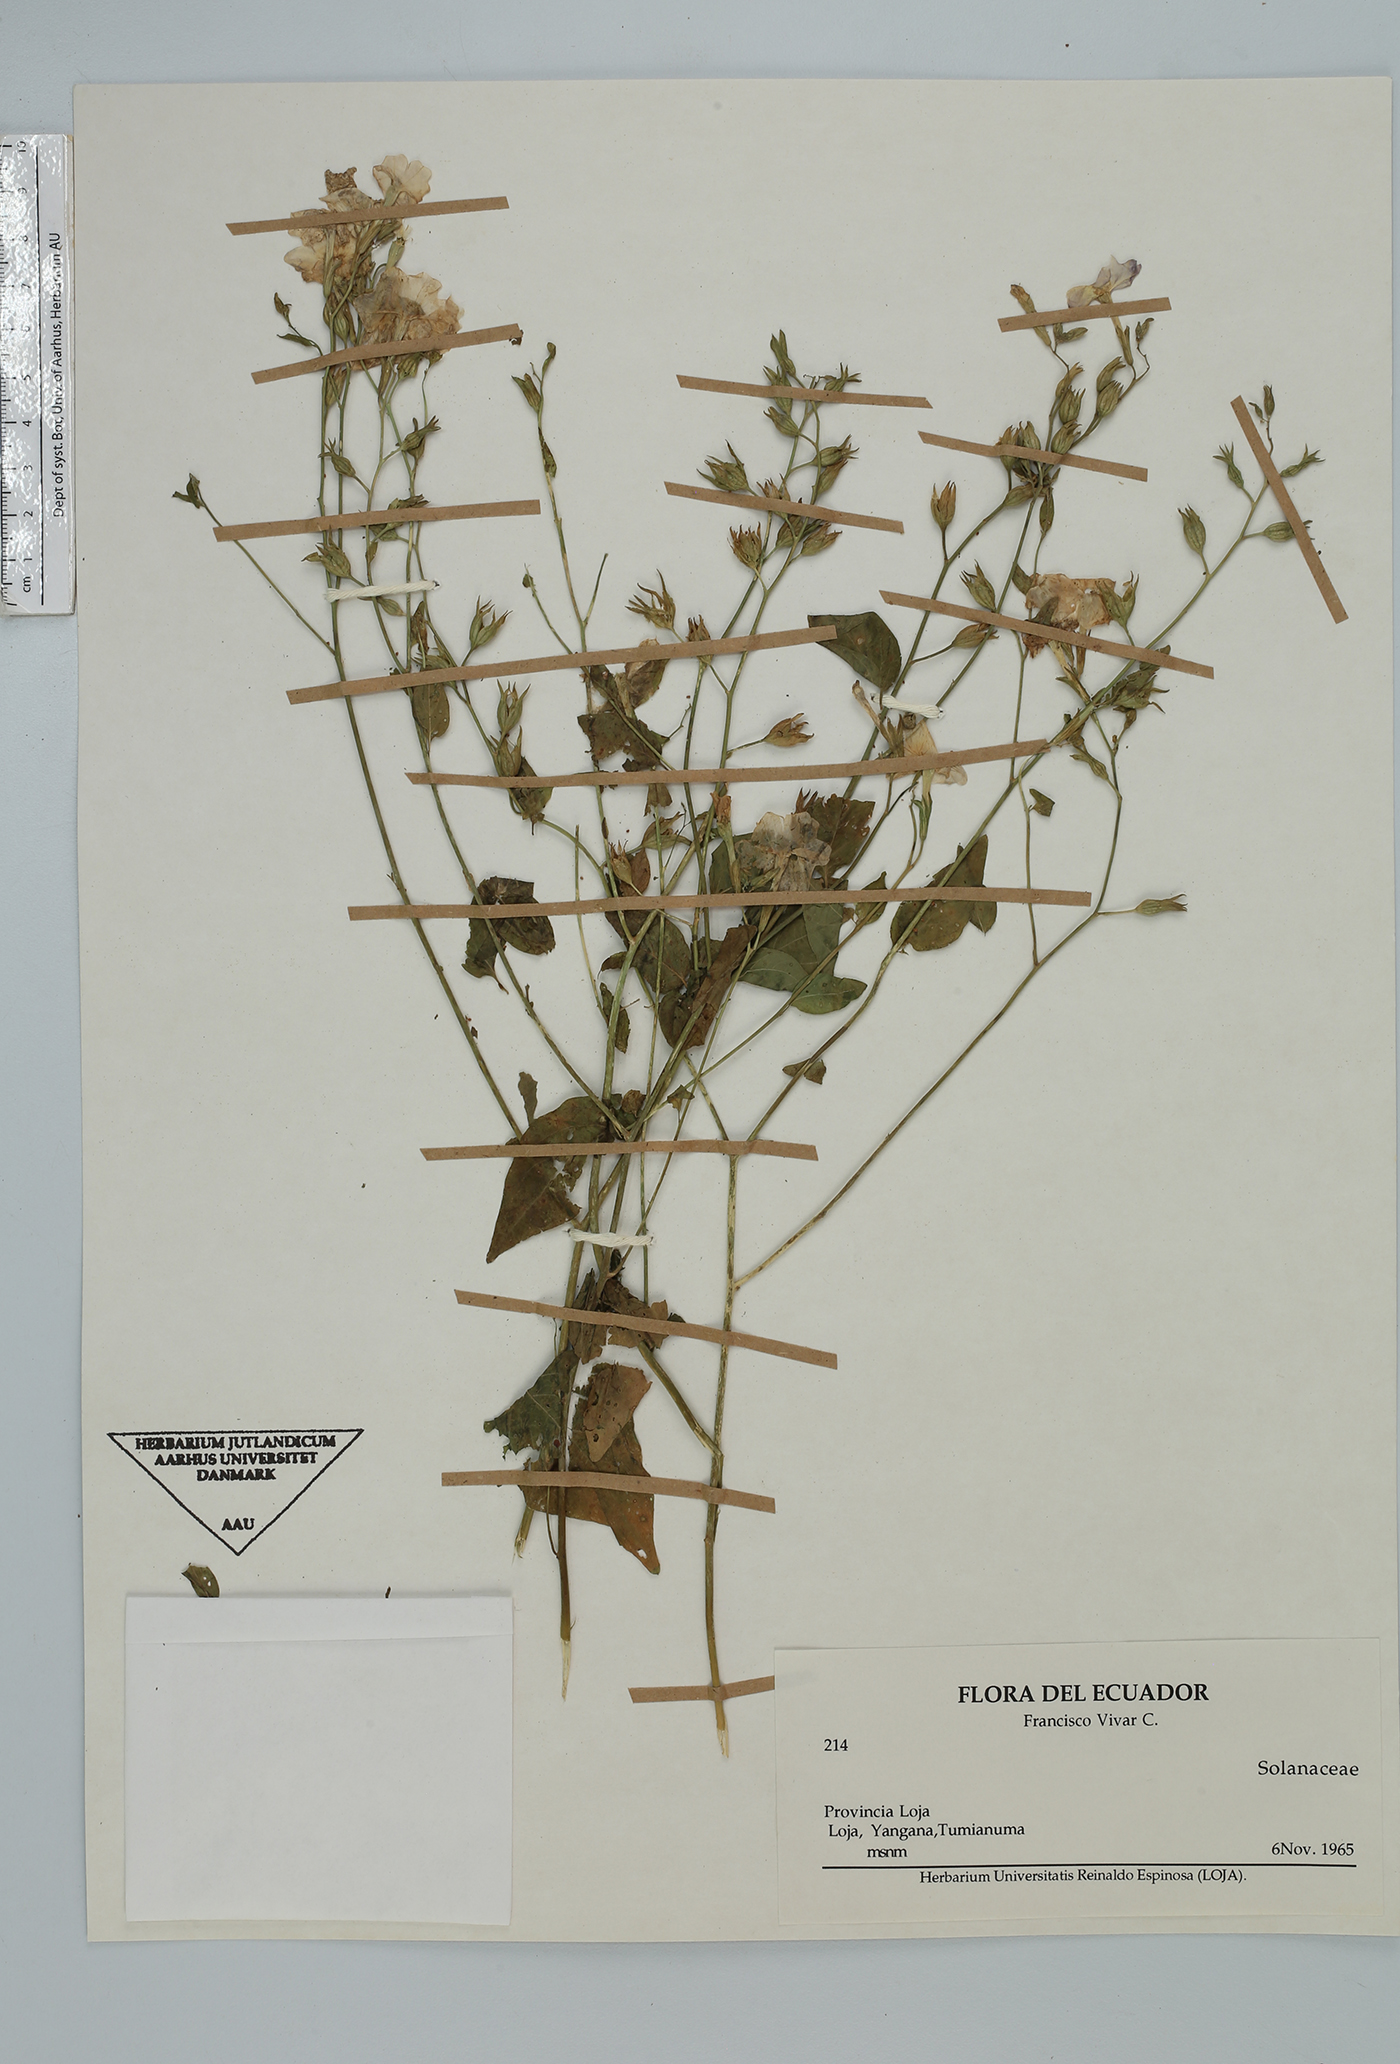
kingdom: Plantae
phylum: Tracheophyta
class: Magnoliopsida
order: Solanales
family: Solanaceae
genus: Browallia
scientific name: Browallia
